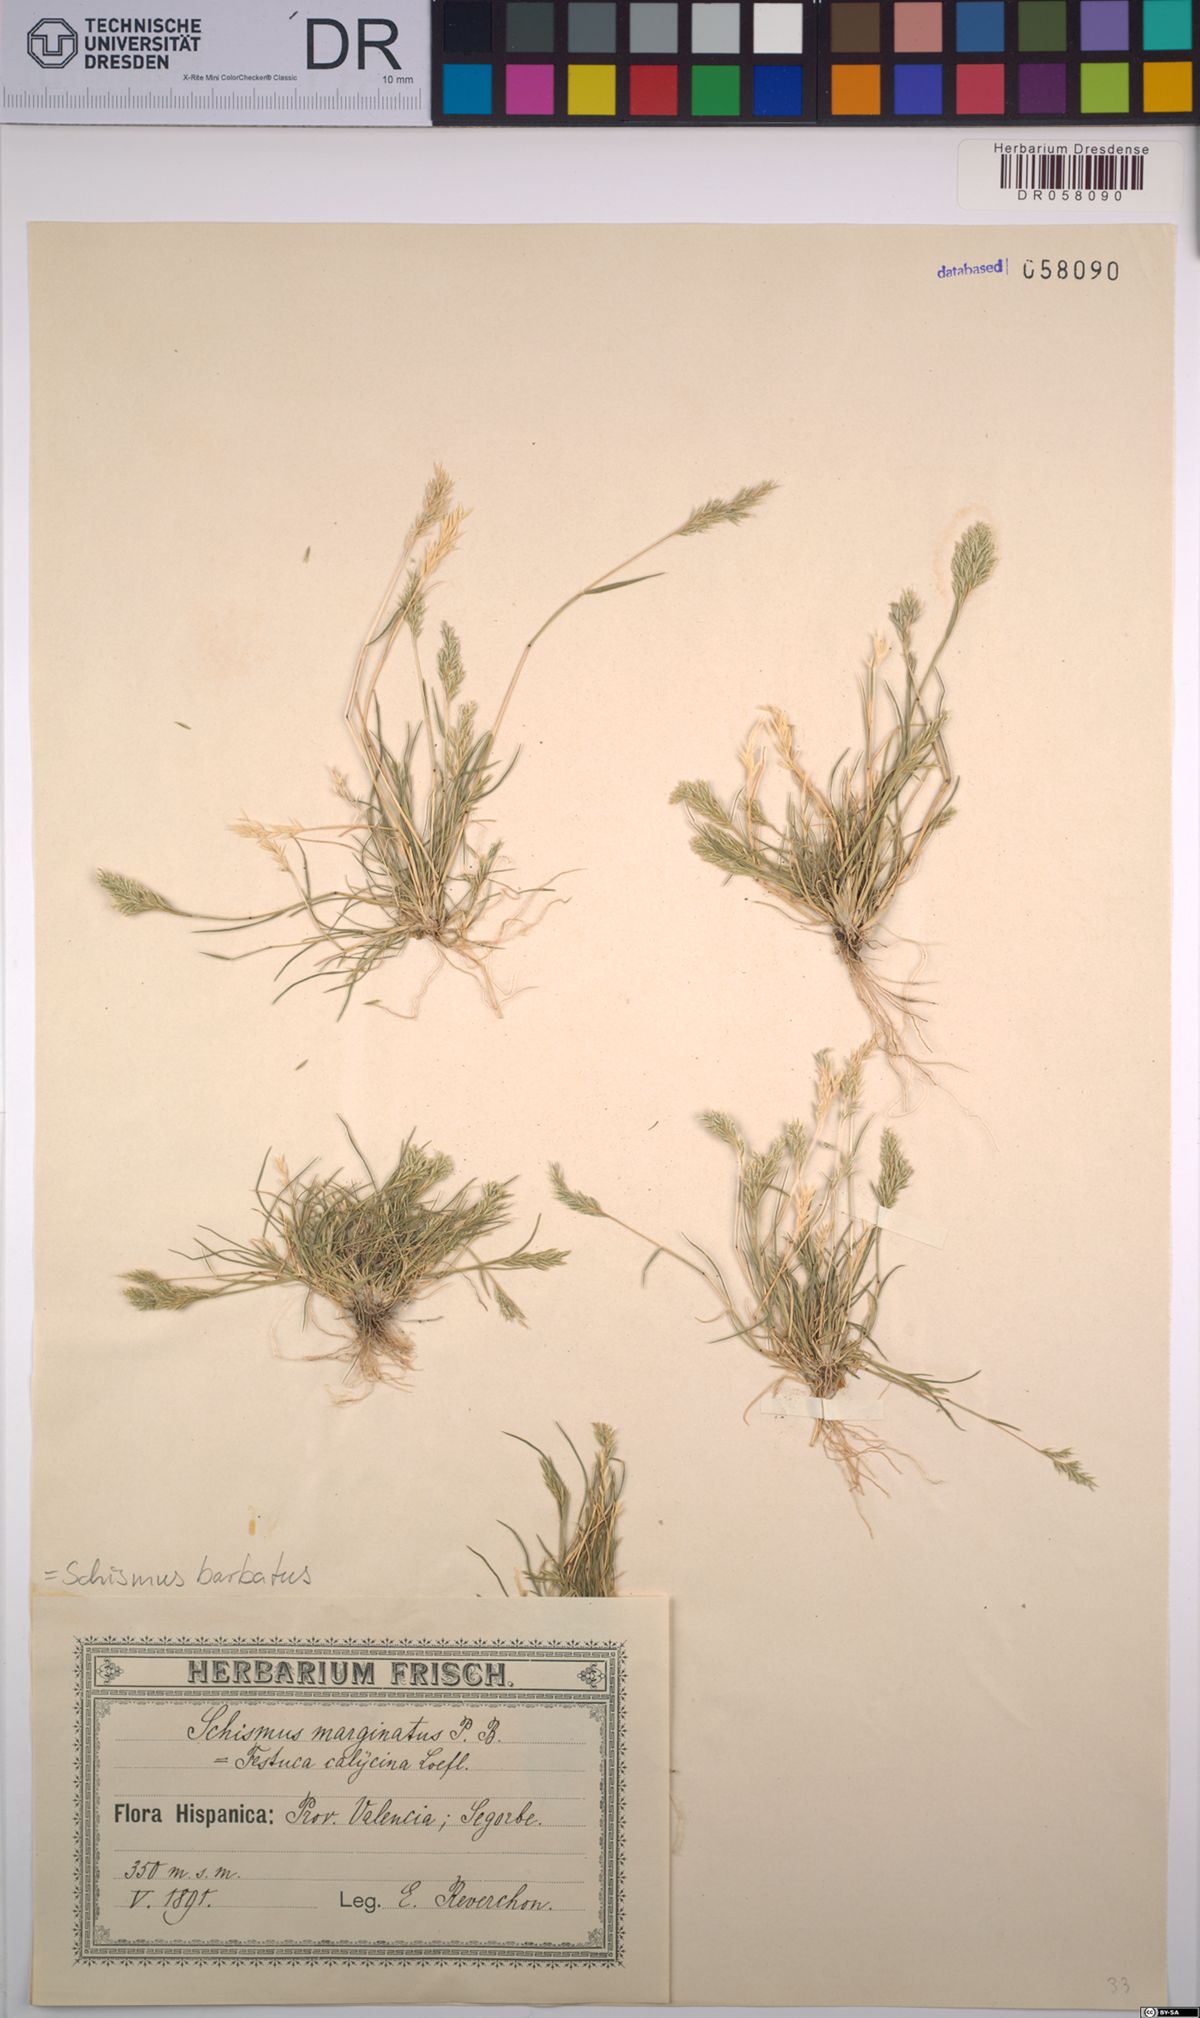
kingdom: Plantae
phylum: Tracheophyta
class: Liliopsida
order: Poales
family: Poaceae
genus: Schismus
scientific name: Schismus barbatus
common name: Kelch-grass
